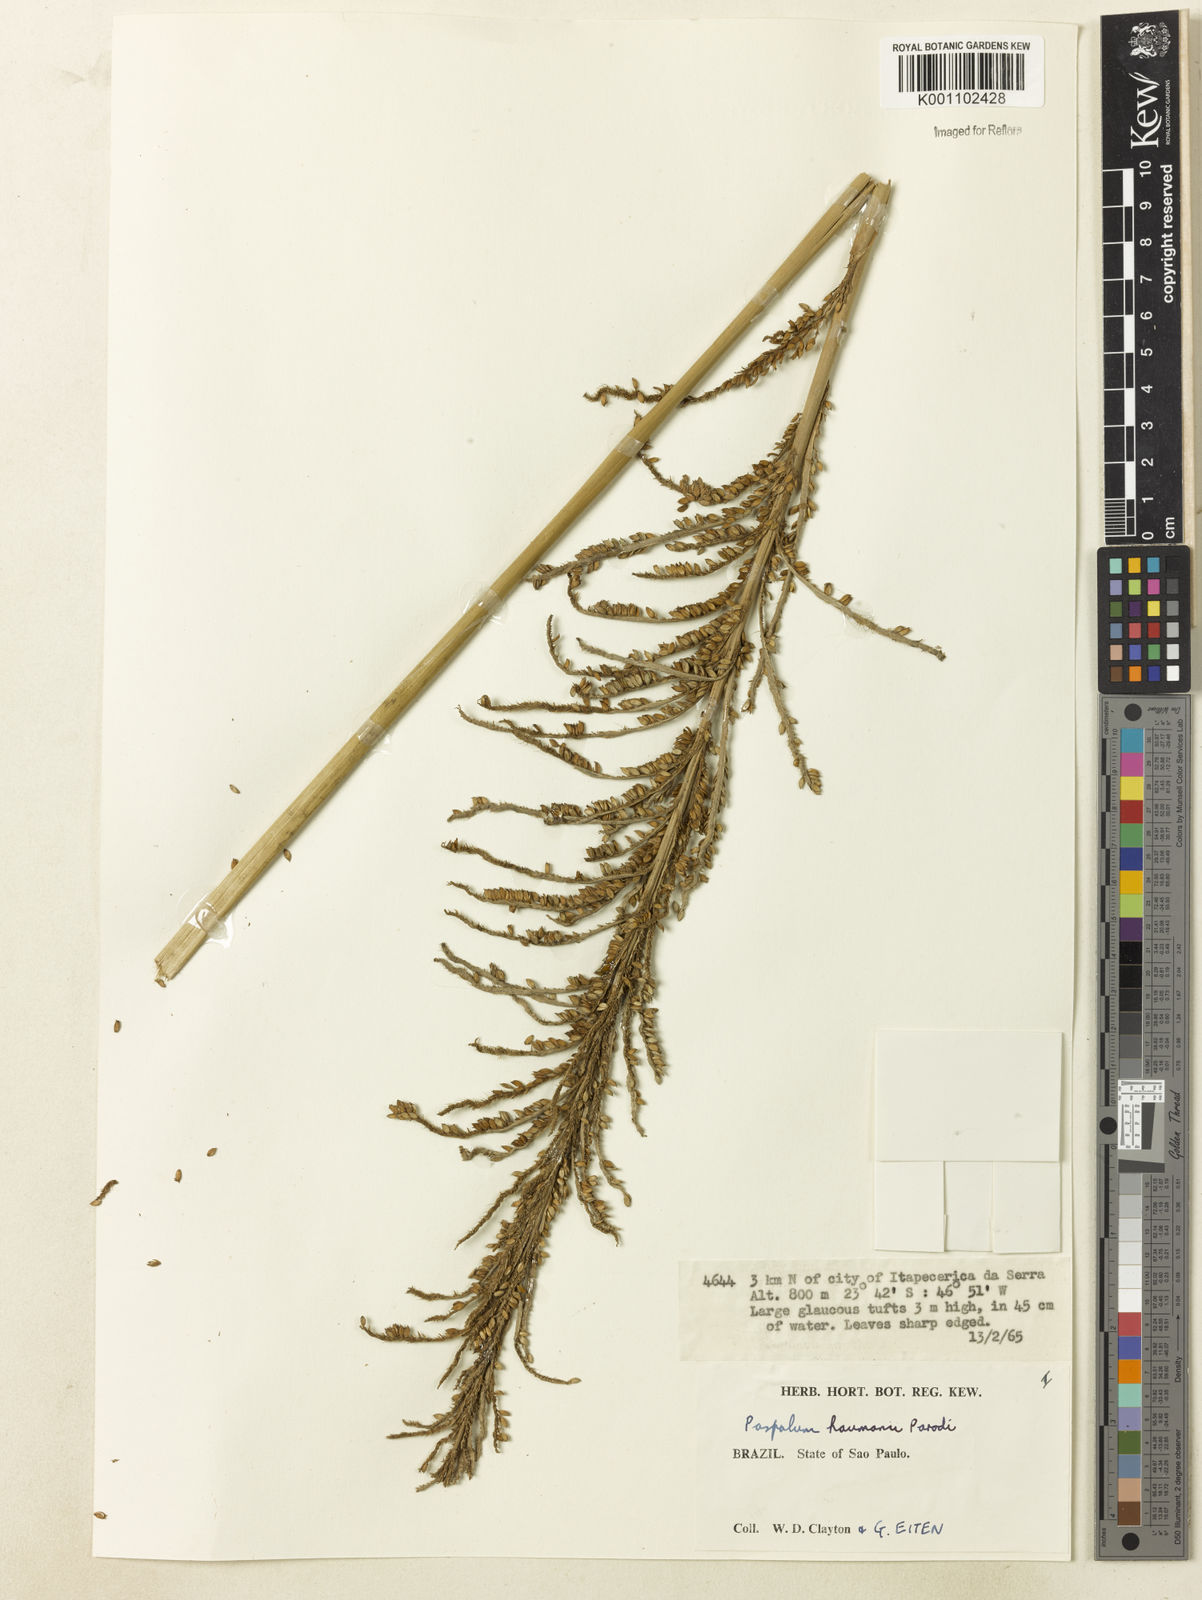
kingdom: Plantae
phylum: Tracheophyta
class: Liliopsida
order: Poales
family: Poaceae
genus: Paspalum
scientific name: Paspalum exaltatum
